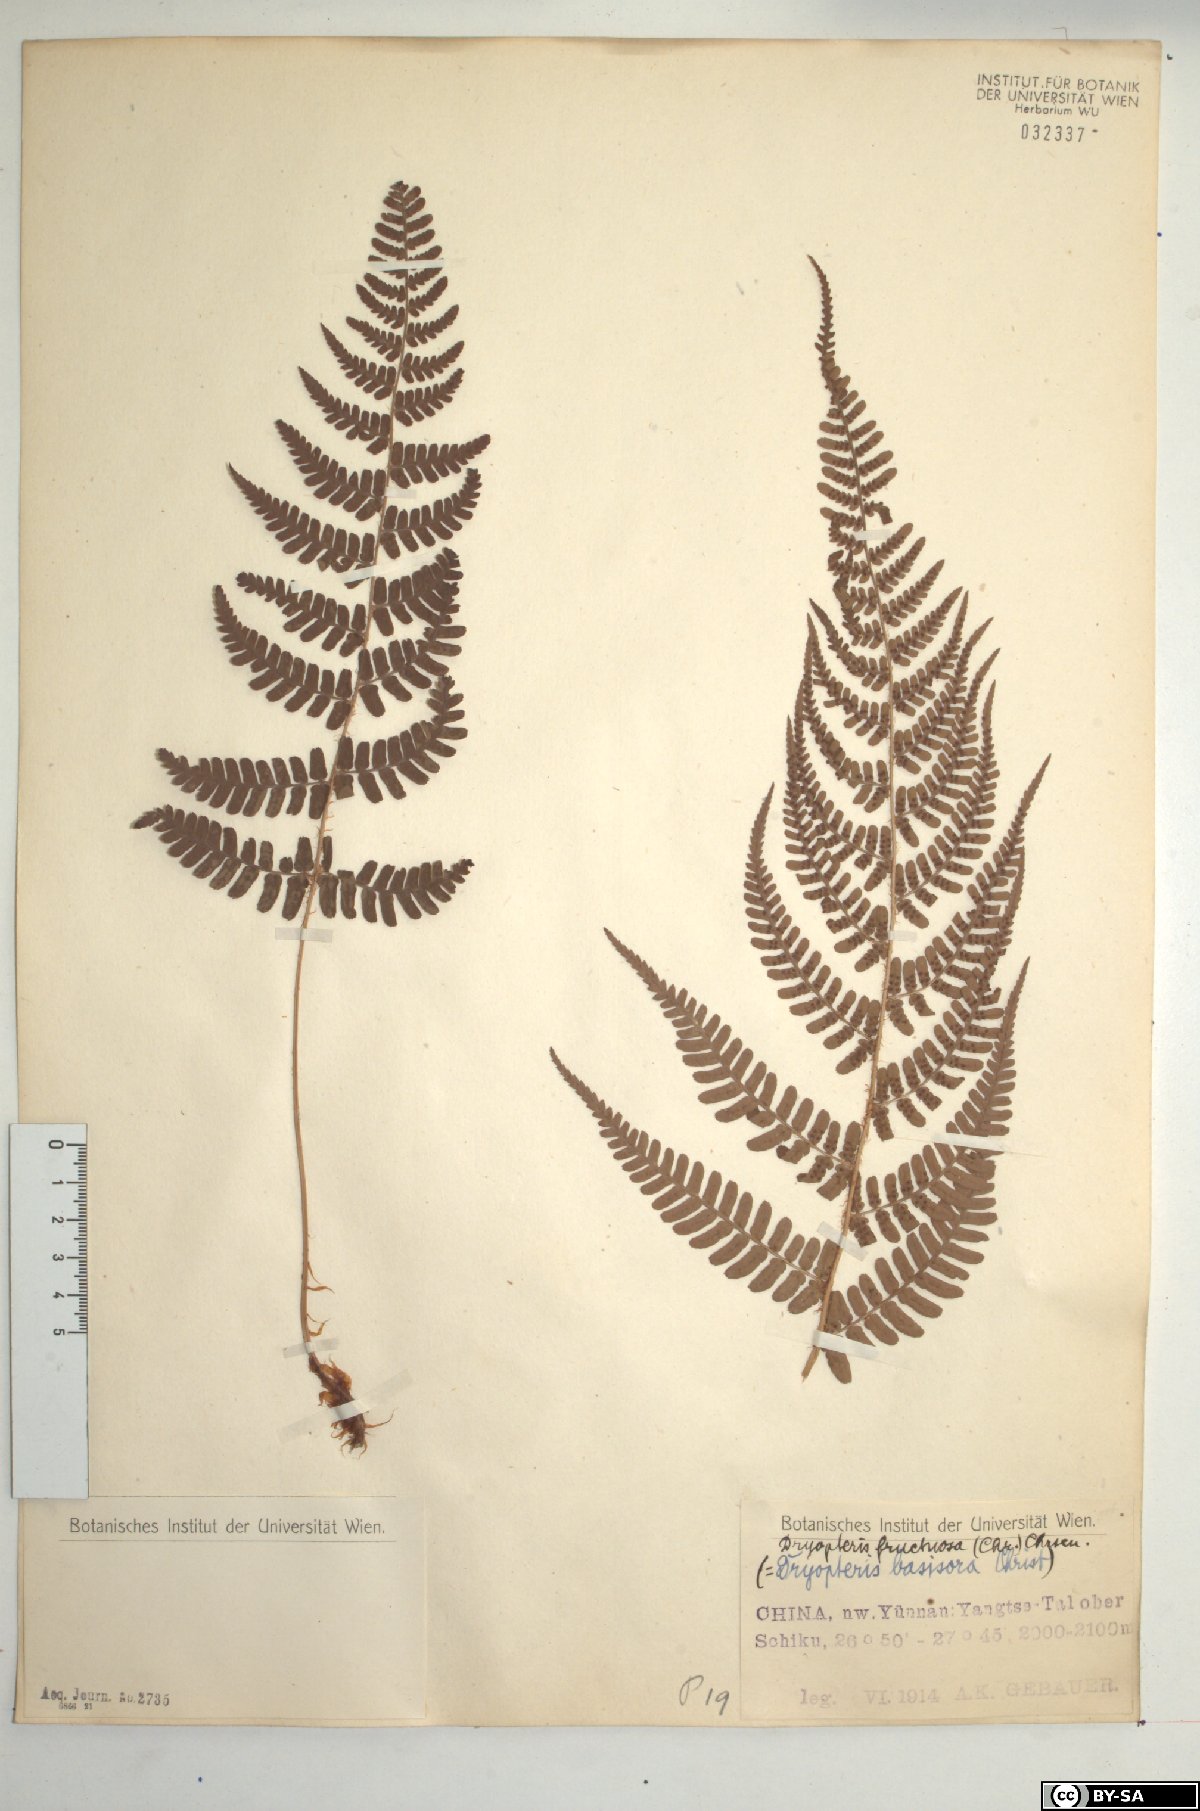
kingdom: Plantae
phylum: Tracheophyta
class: Polypodiopsida
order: Polypodiales
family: Dryopteridaceae
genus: Dryopteris
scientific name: Dryopteris fructuosa
